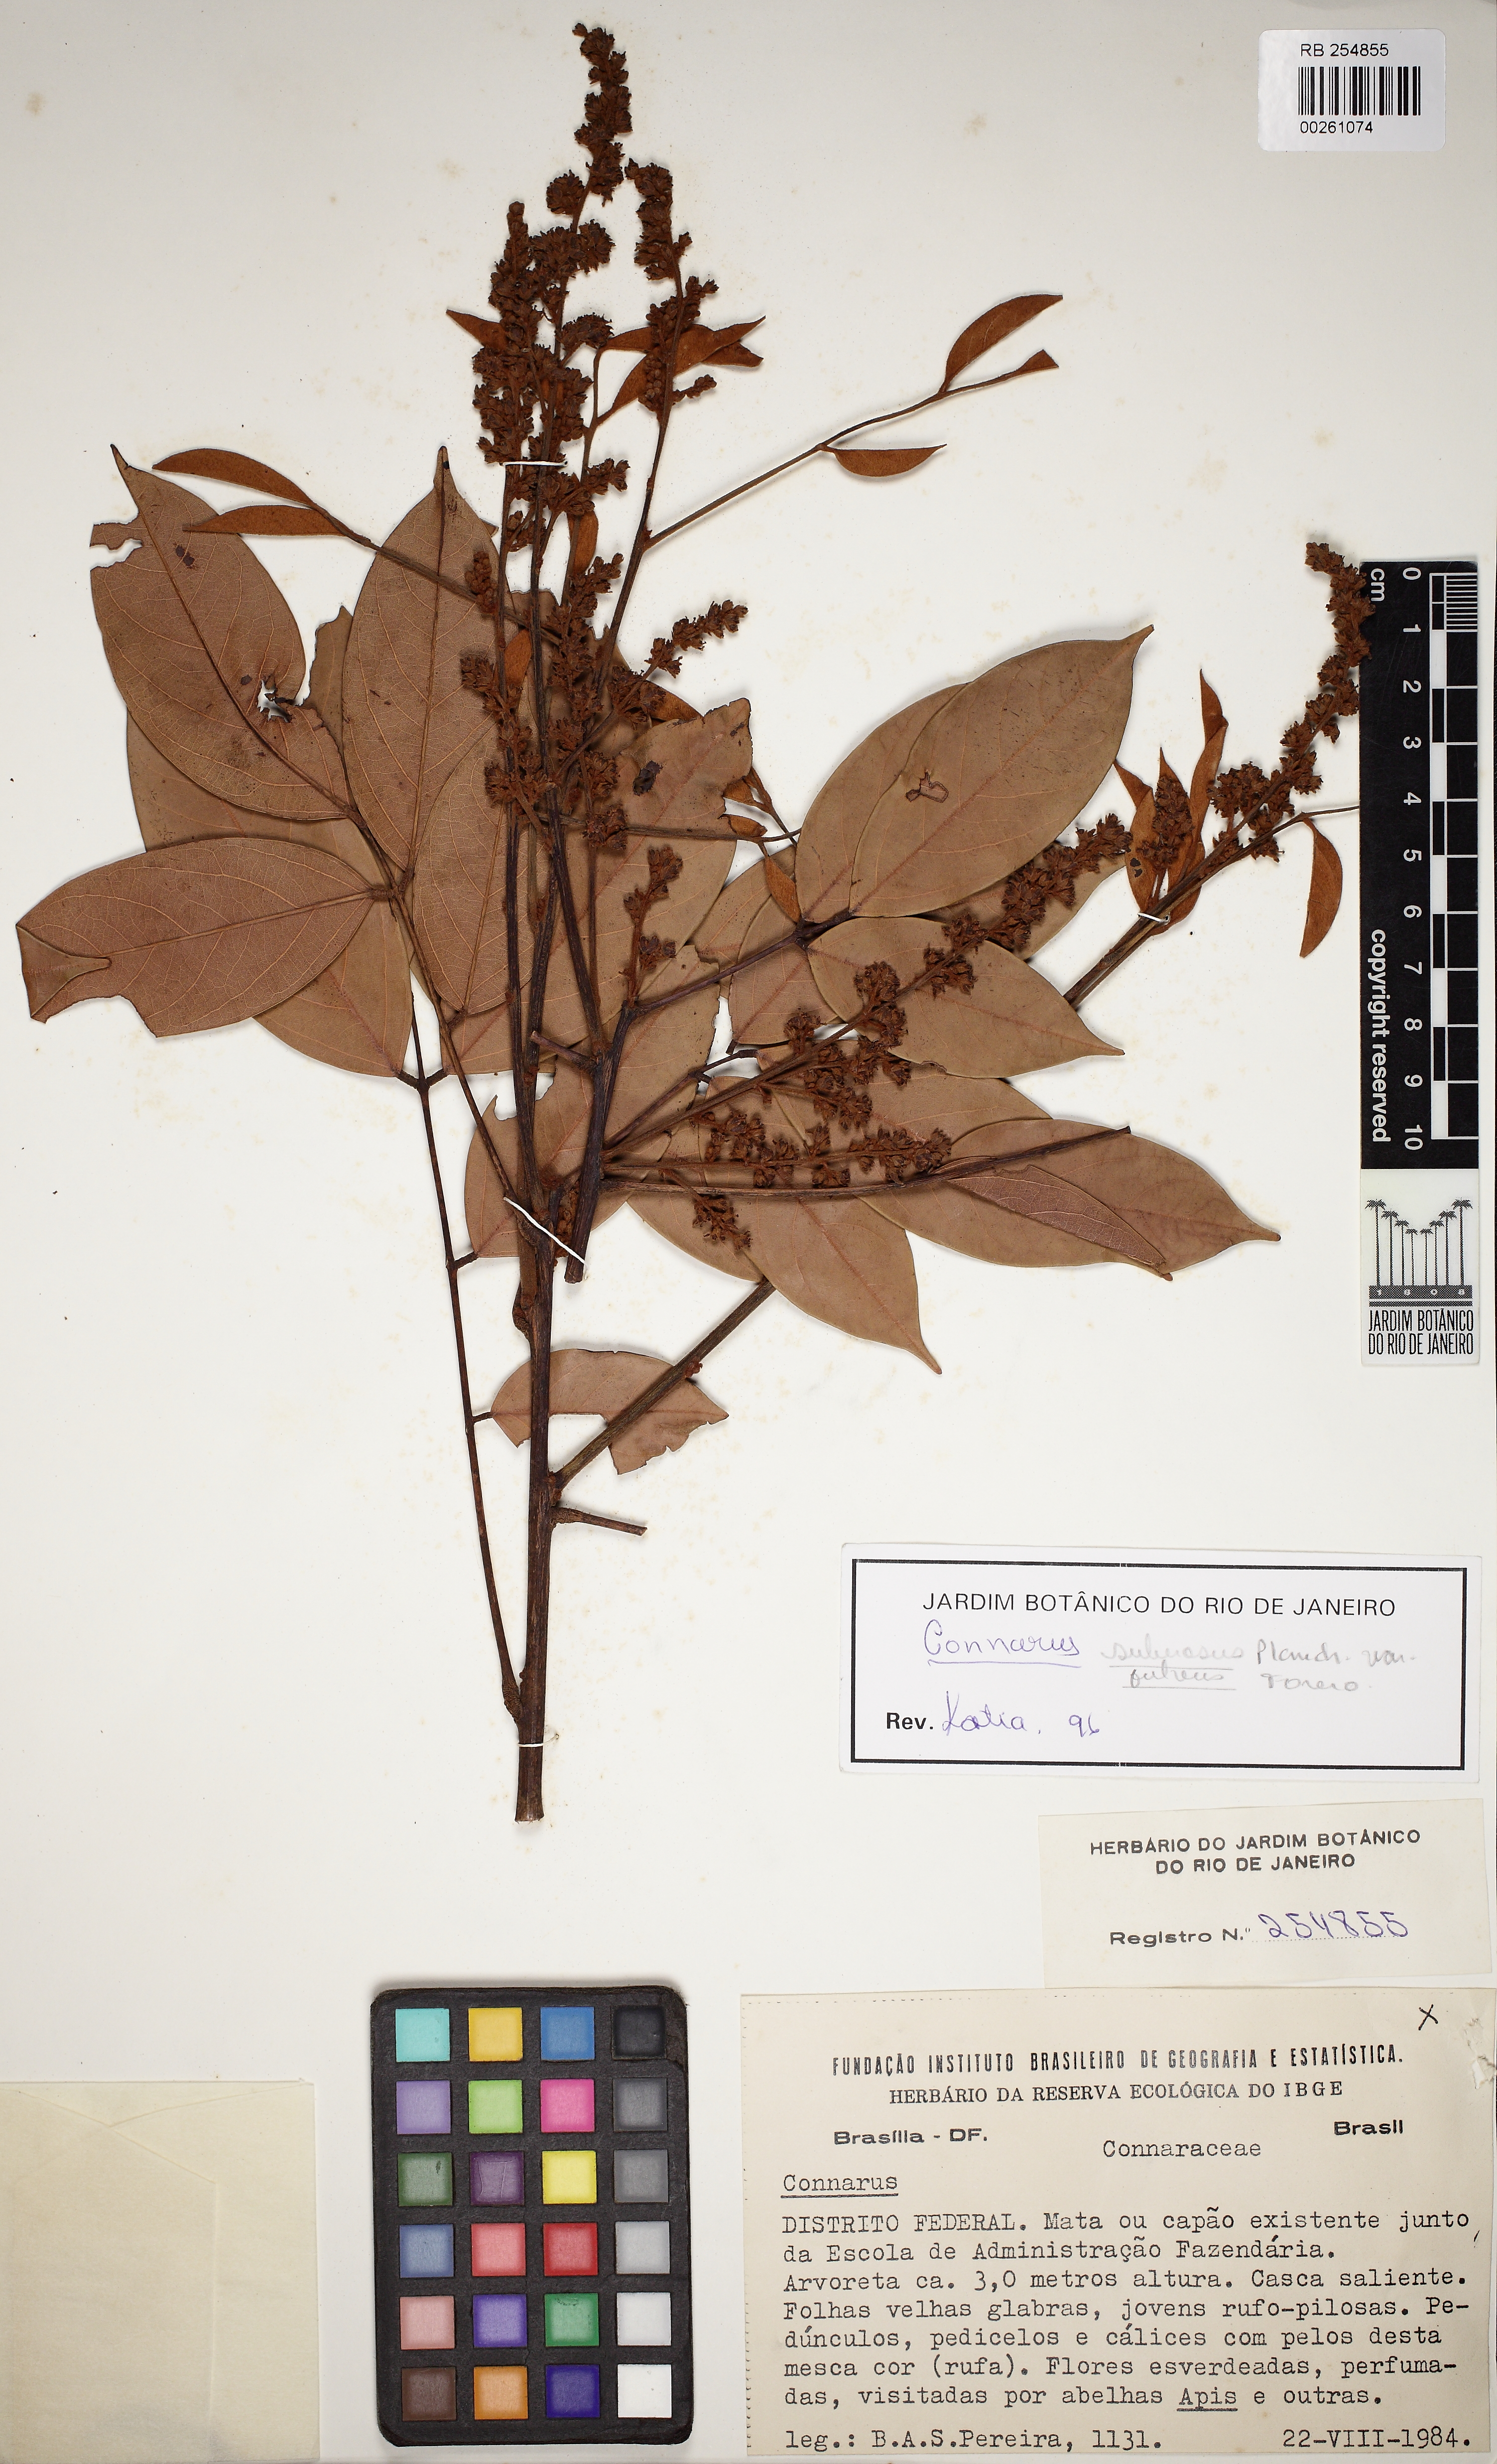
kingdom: Plantae
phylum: Tracheophyta
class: Magnoliopsida
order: Oxalidales
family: Connaraceae
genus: Connarus
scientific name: Connarus suberosus
